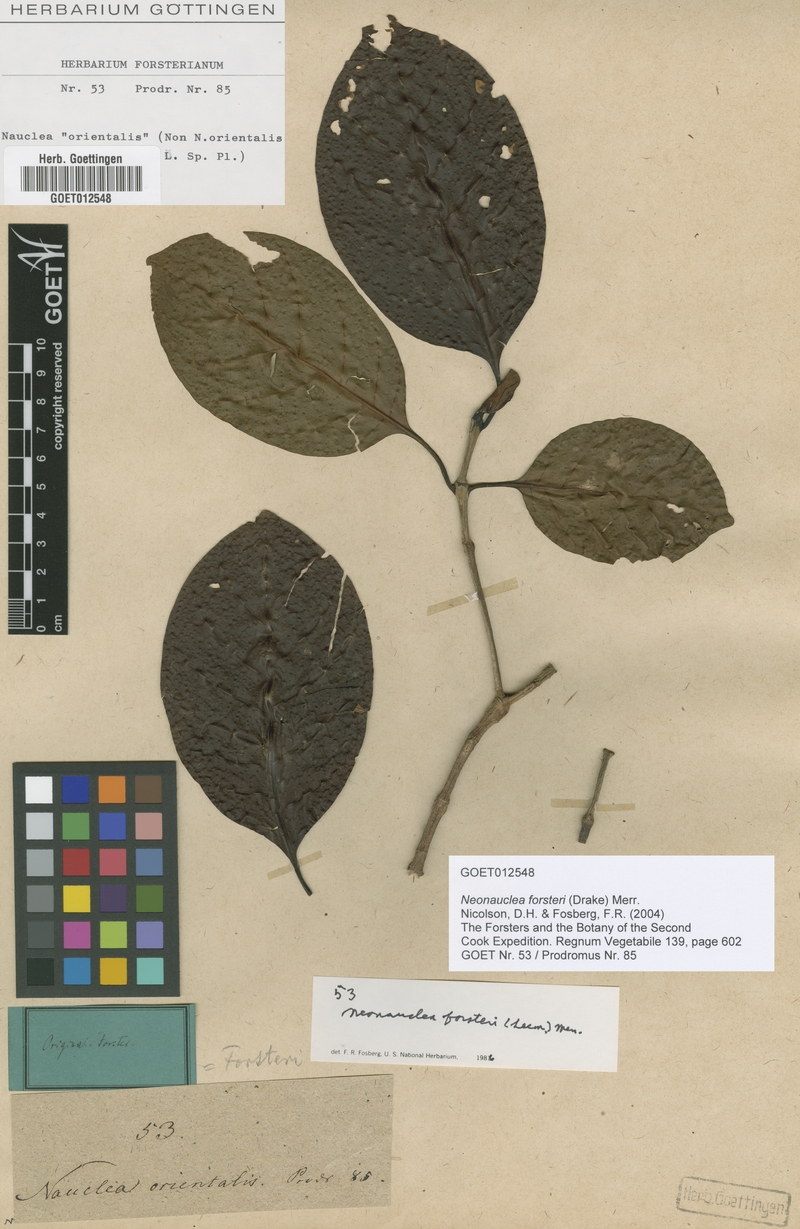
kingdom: Plantae
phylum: Tracheophyta
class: Magnoliopsida
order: Gentianales
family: Rubiaceae
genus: Neonauclea
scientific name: Neonauclea forsteri
